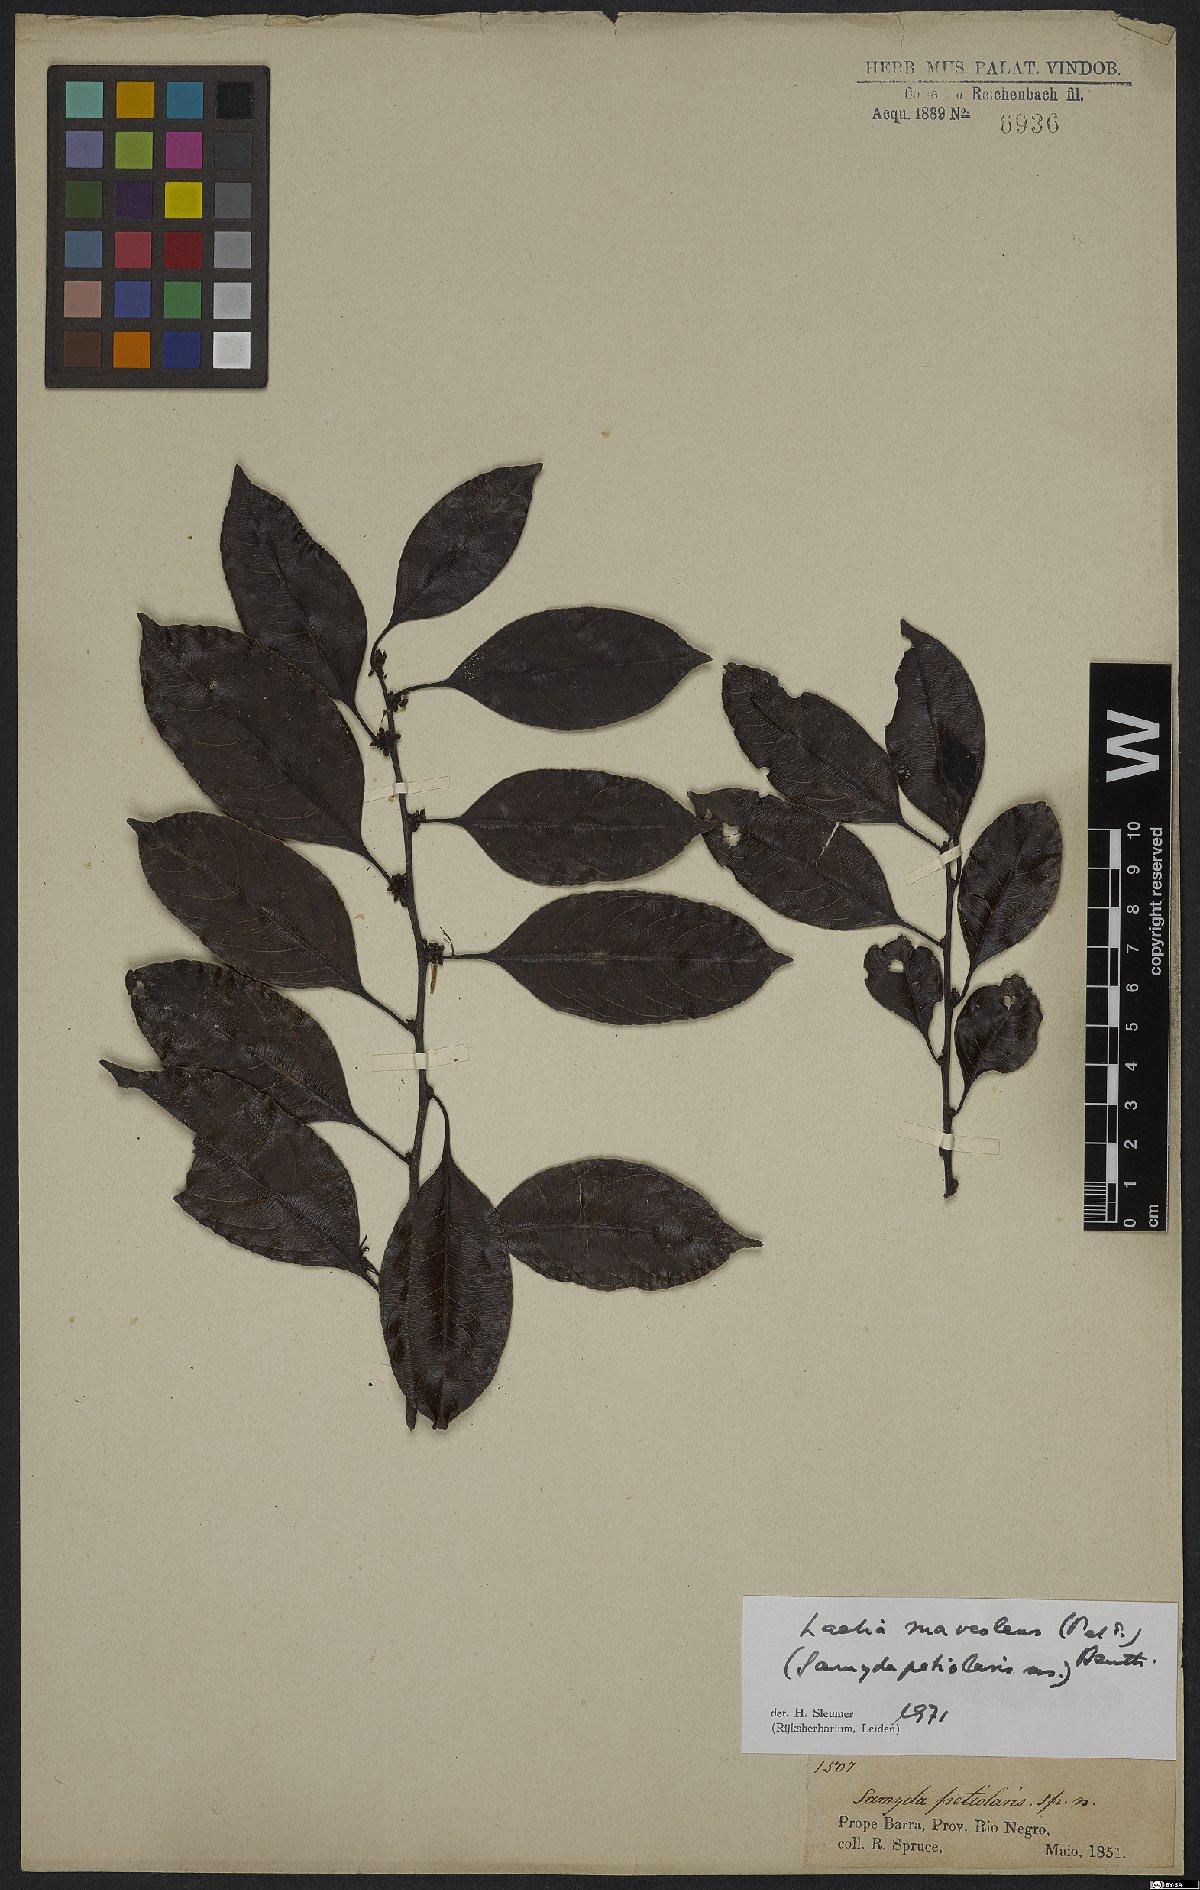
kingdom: Plantae
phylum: Tracheophyta
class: Magnoliopsida
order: Malpighiales
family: Salicaceae
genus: Casearia
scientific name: Casearia suaveolens
